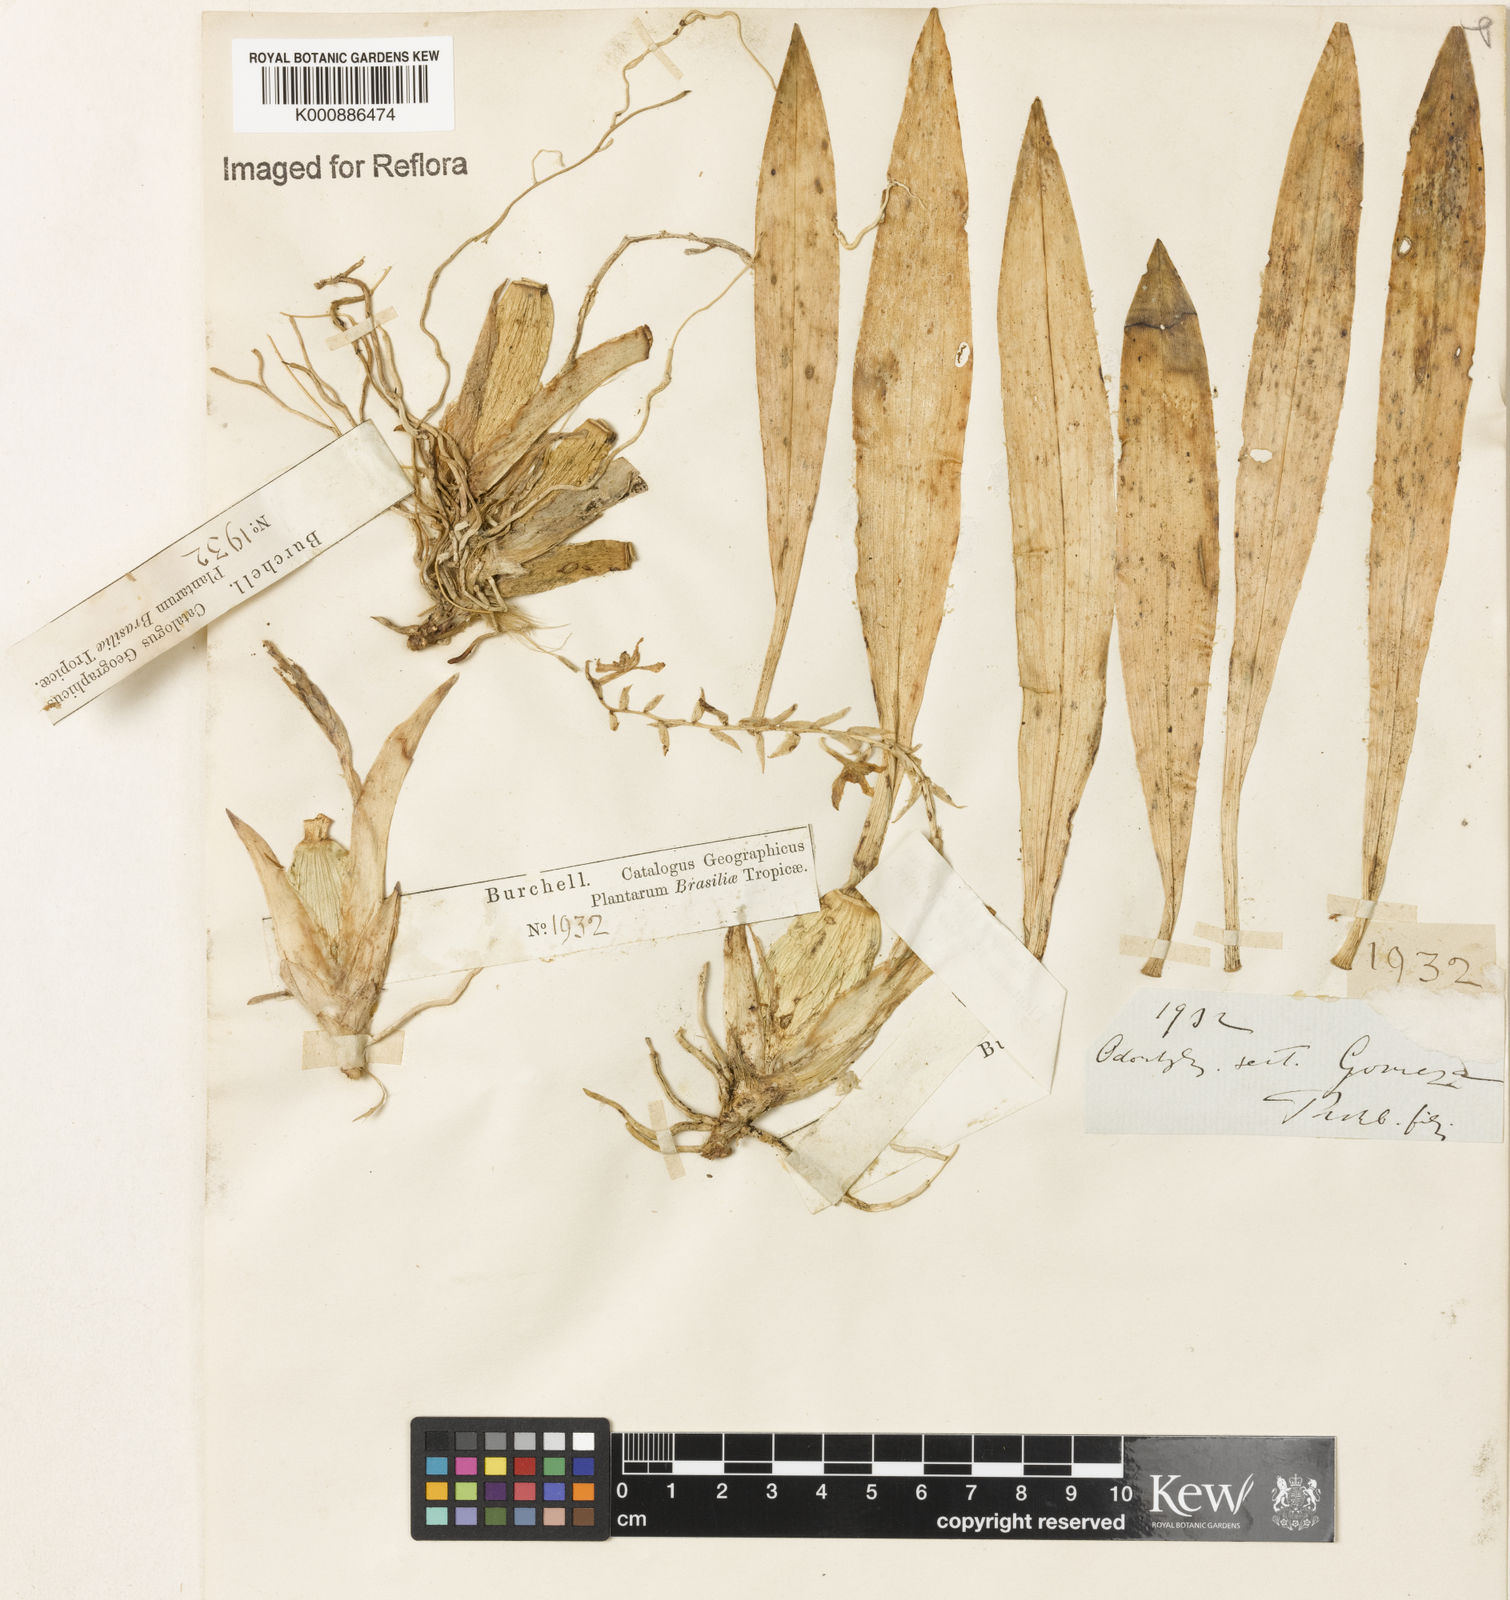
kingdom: Plantae
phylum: Tracheophyta
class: Liliopsida
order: Asparagales
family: Orchidaceae
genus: Gomesa
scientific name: Gomesa recurva
